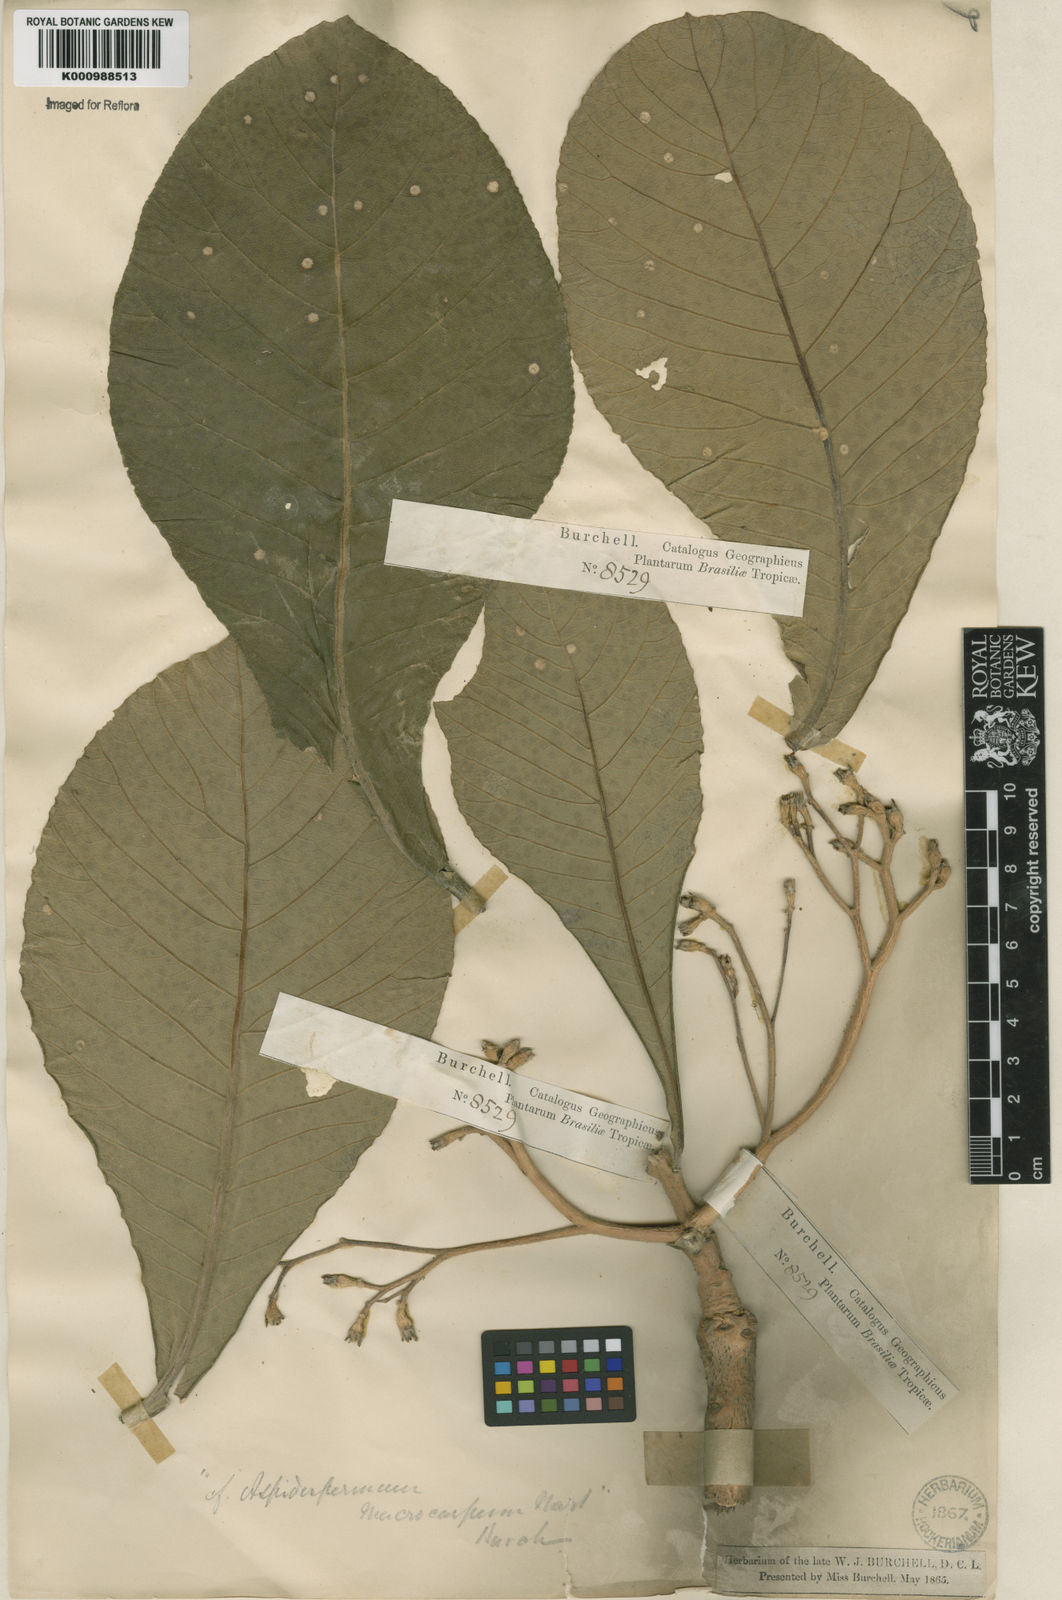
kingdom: Plantae
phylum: Tracheophyta
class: Magnoliopsida
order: Gentianales
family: Apocynaceae
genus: Aspidosperma
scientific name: Aspidosperma macrocarpon
